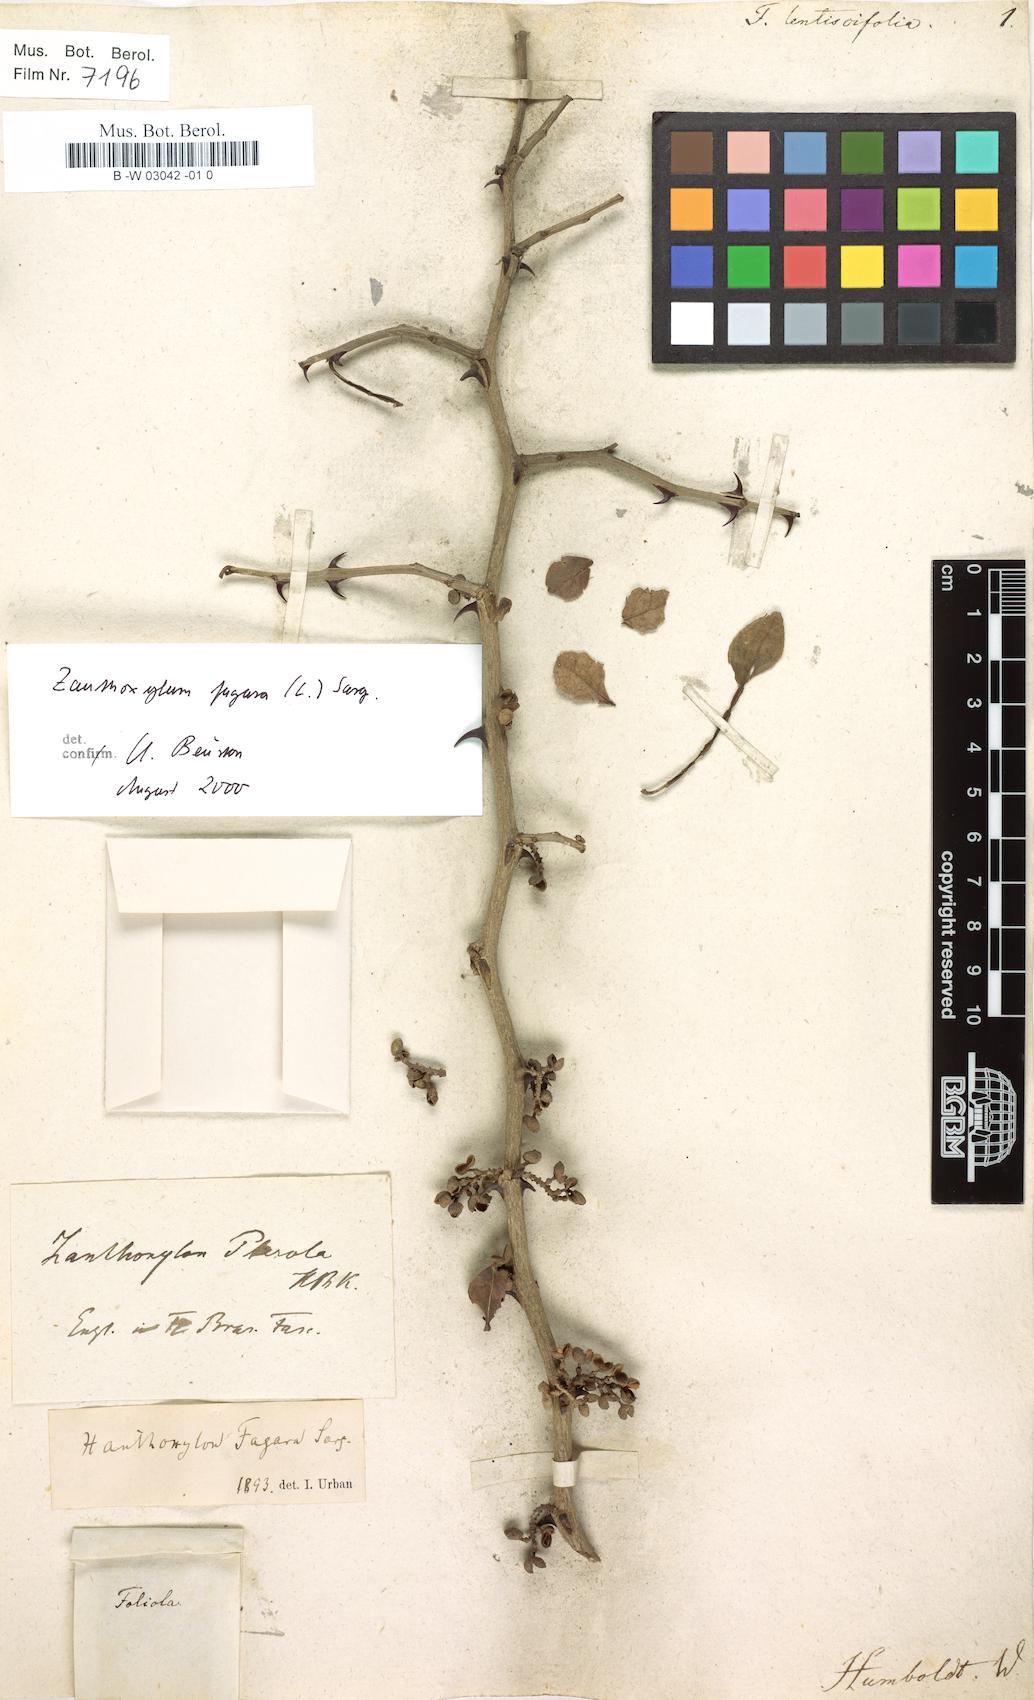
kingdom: Plantae
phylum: Tracheophyta
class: Magnoliopsida
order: Sapindales
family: Rutaceae
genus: Zanthoxylum
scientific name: Zanthoxylum fagara
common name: Lime prickly-ash
